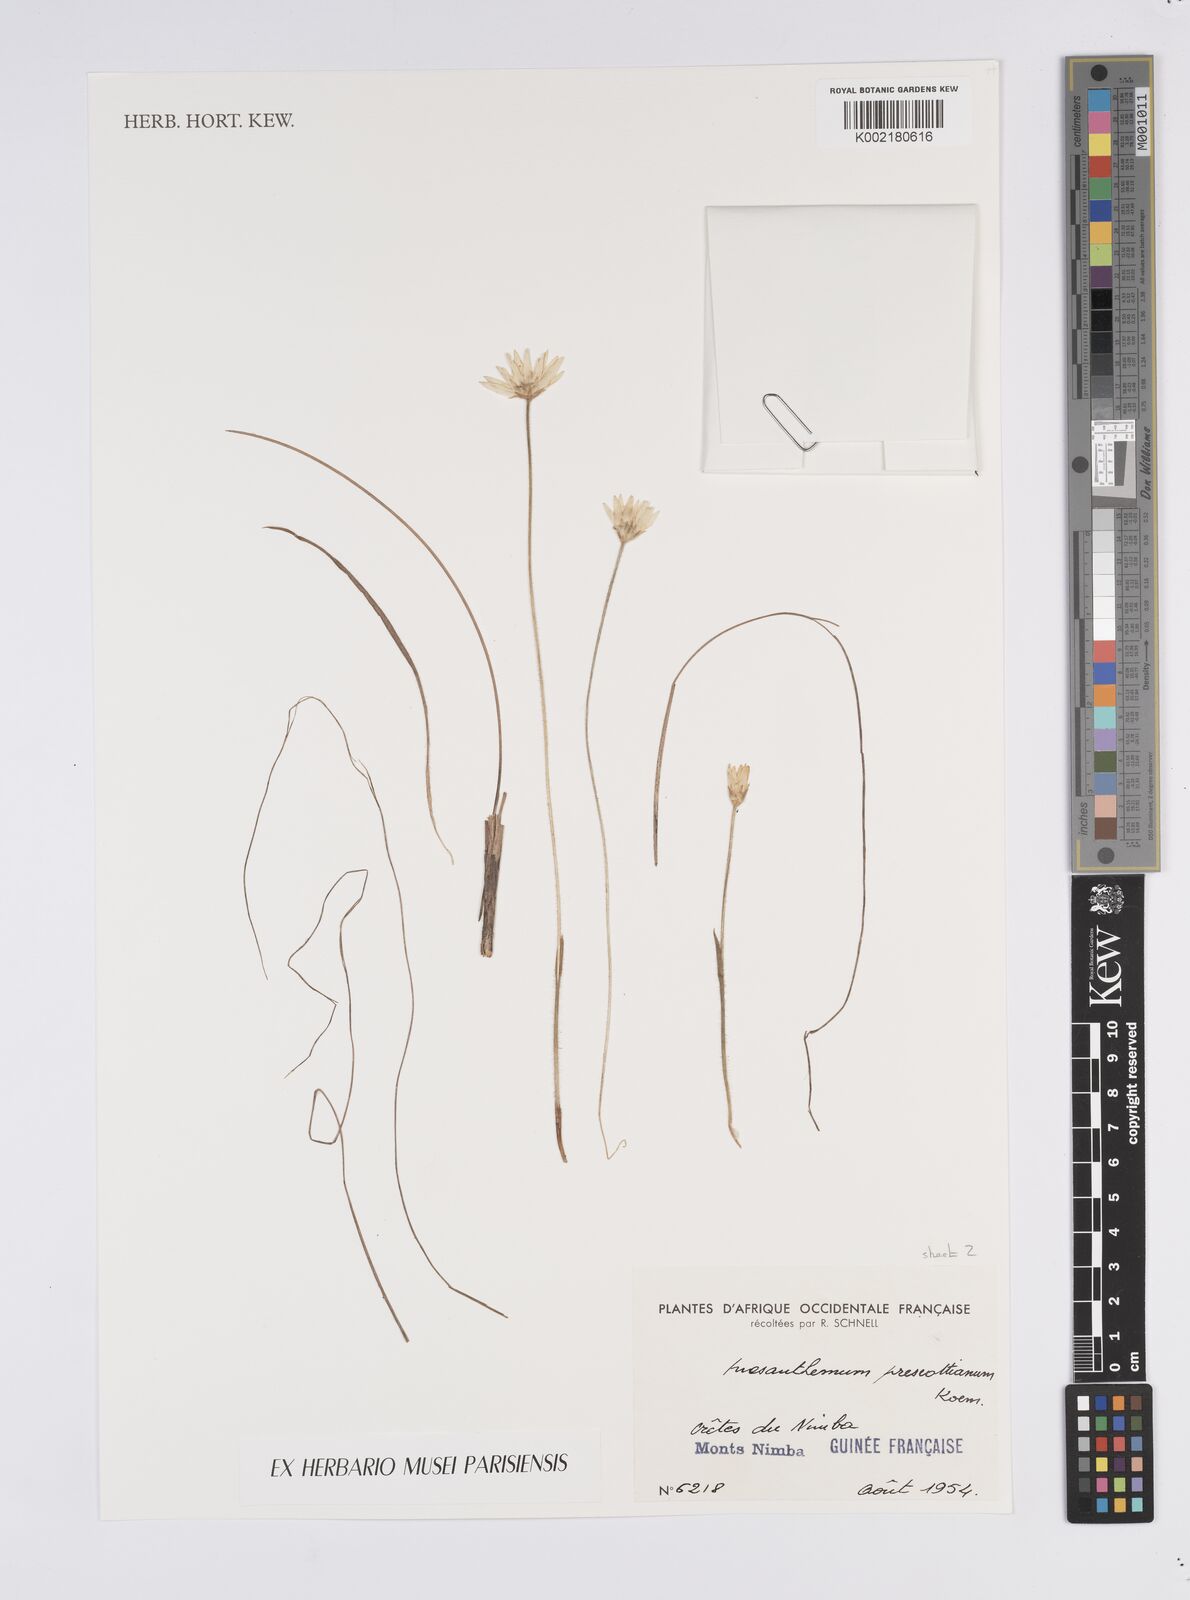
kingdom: Plantae
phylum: Tracheophyta
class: Liliopsida
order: Poales
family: Eriocaulaceae
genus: Mesanthemum
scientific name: Mesanthemum prescottianum
